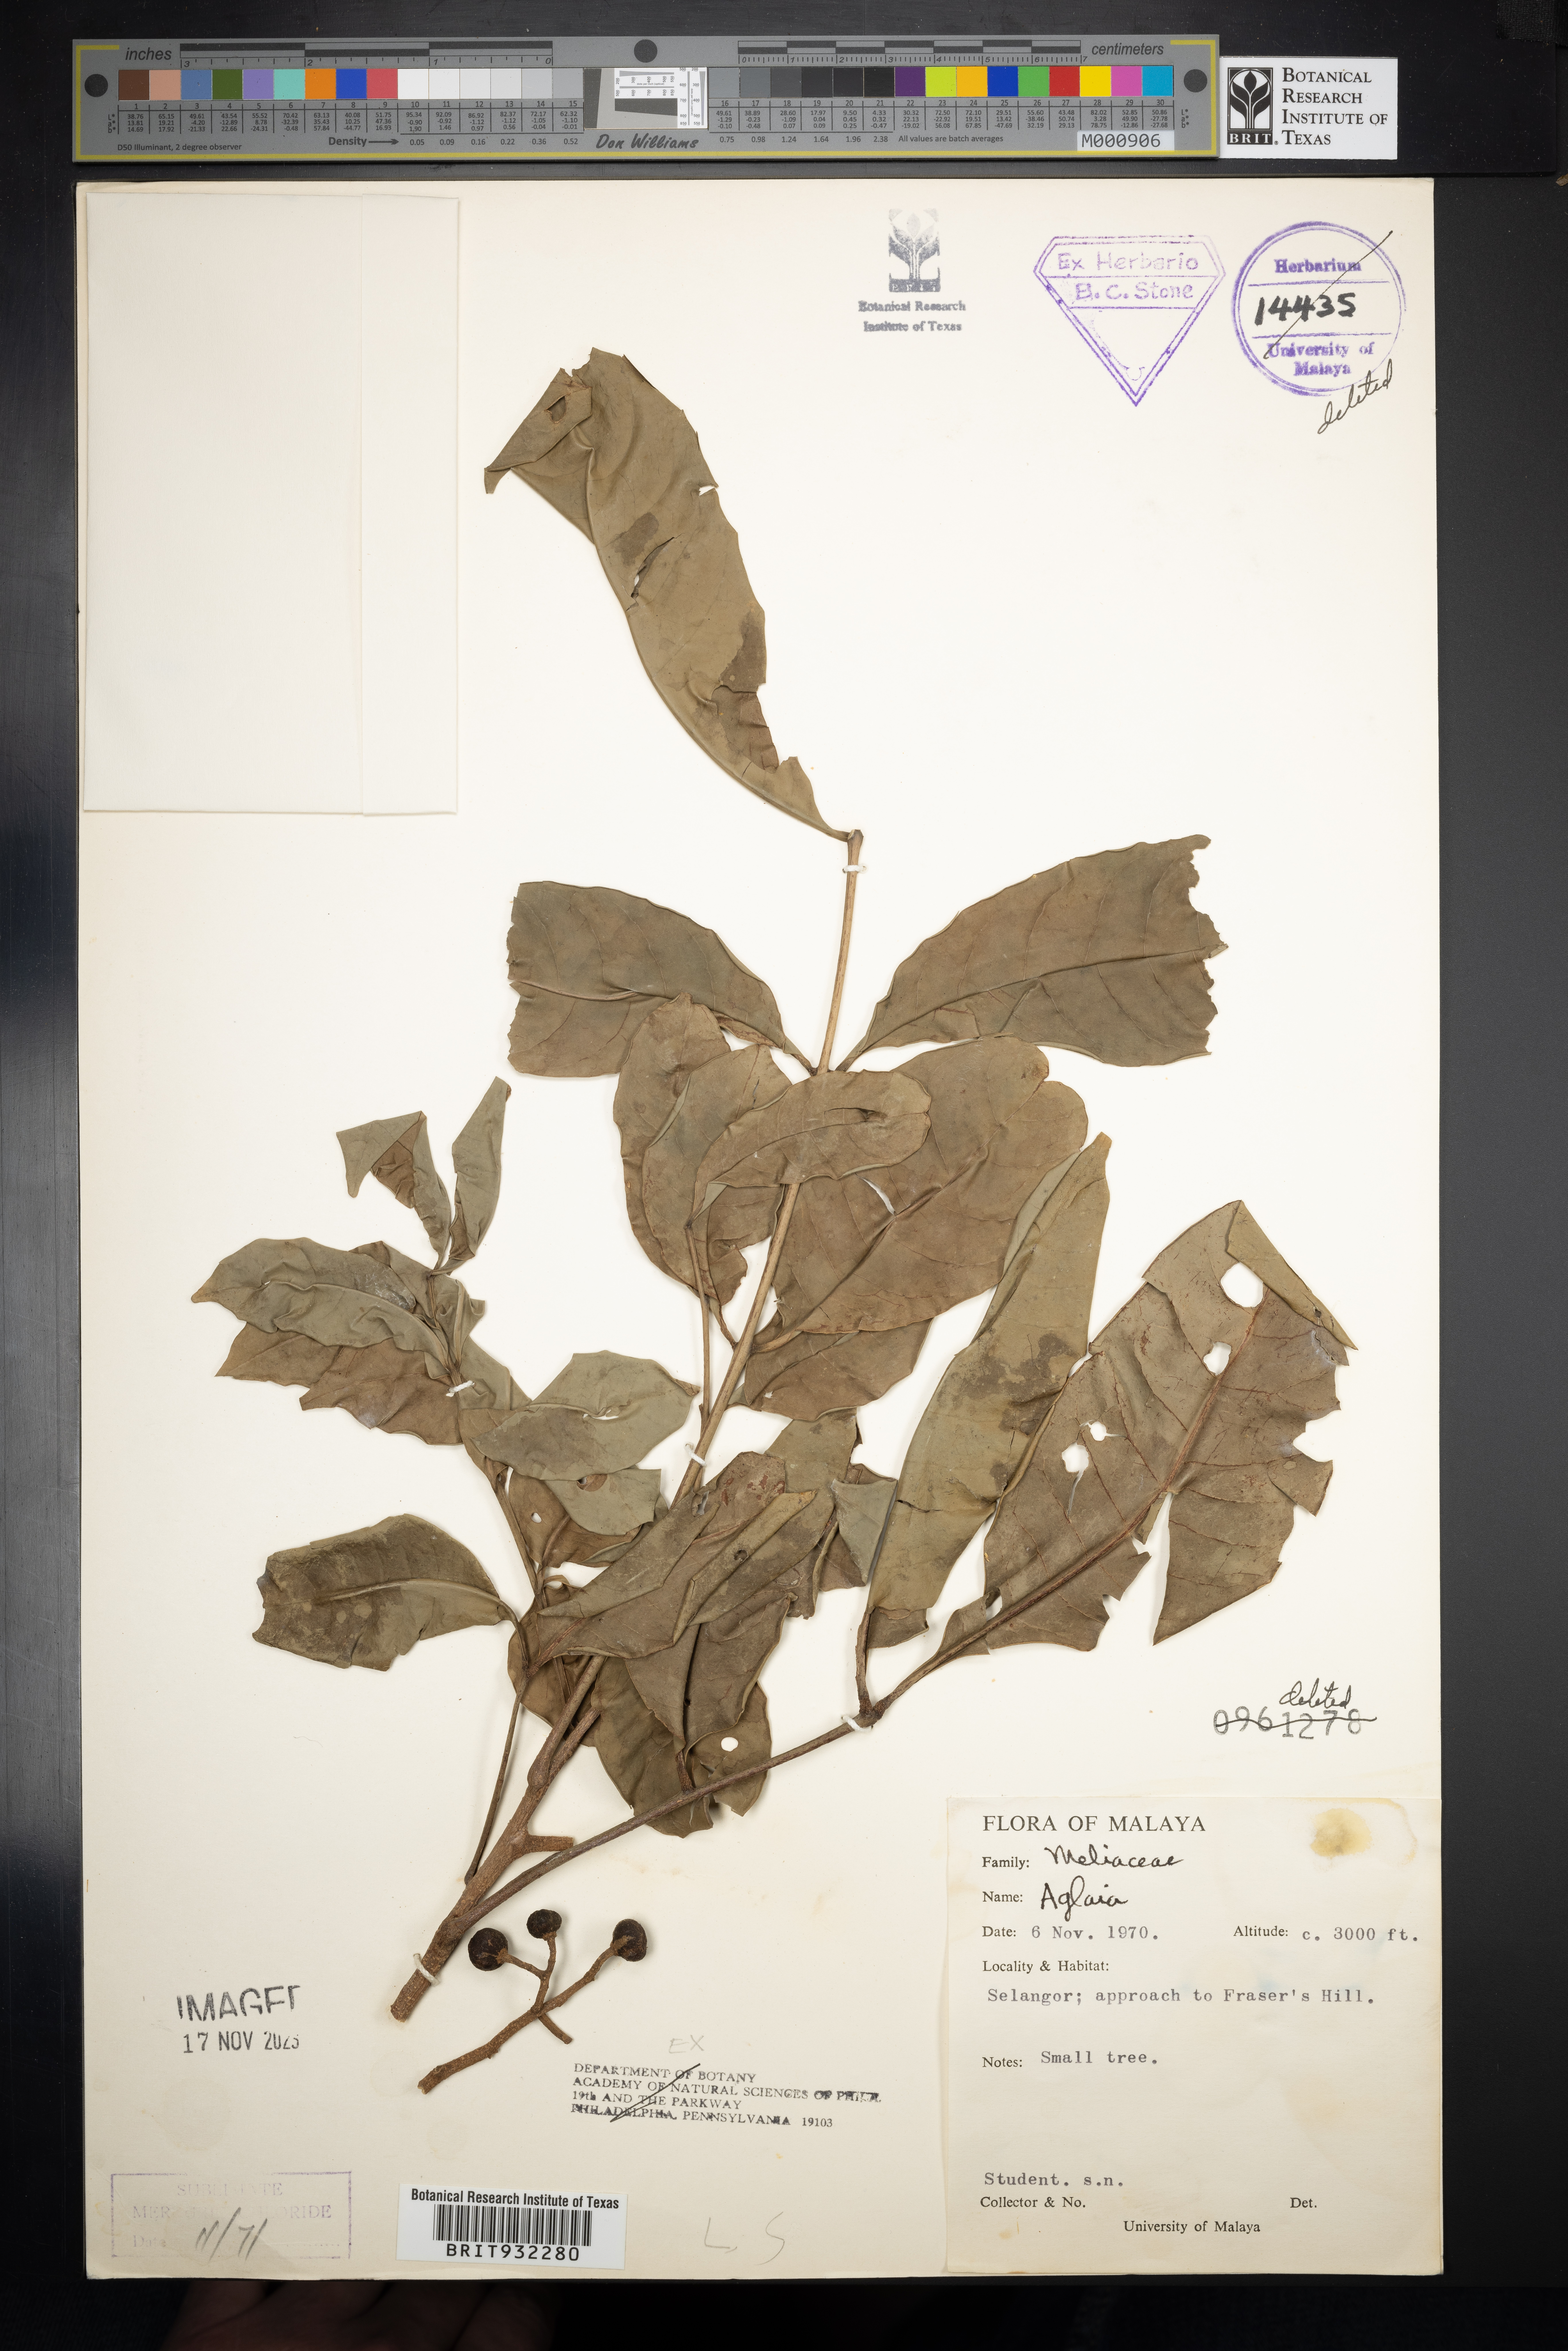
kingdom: Plantae
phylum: Tracheophyta
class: Magnoliopsida
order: Sapindales
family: Meliaceae
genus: Aglaia
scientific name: Aglaia
